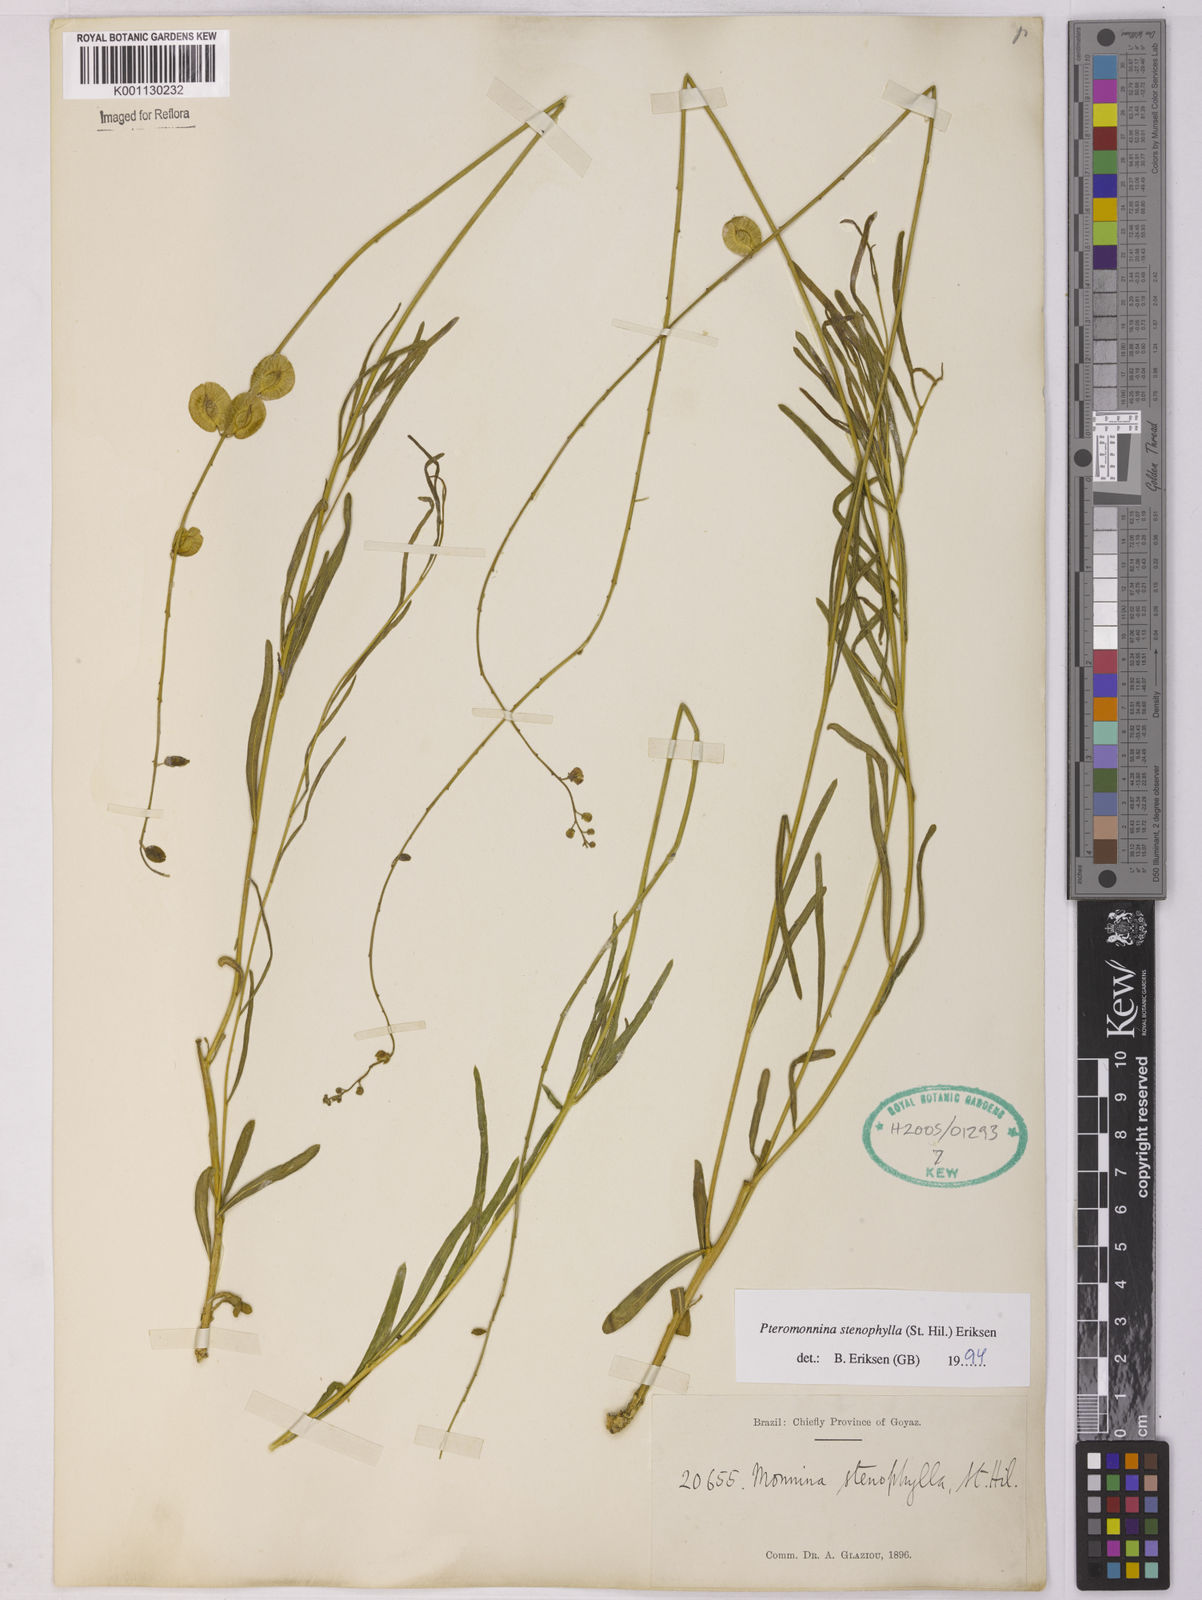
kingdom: Plantae
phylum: Tracheophyta
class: Magnoliopsida
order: Fabales
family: Polygalaceae
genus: Monnina
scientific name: Monnina stenophylla
